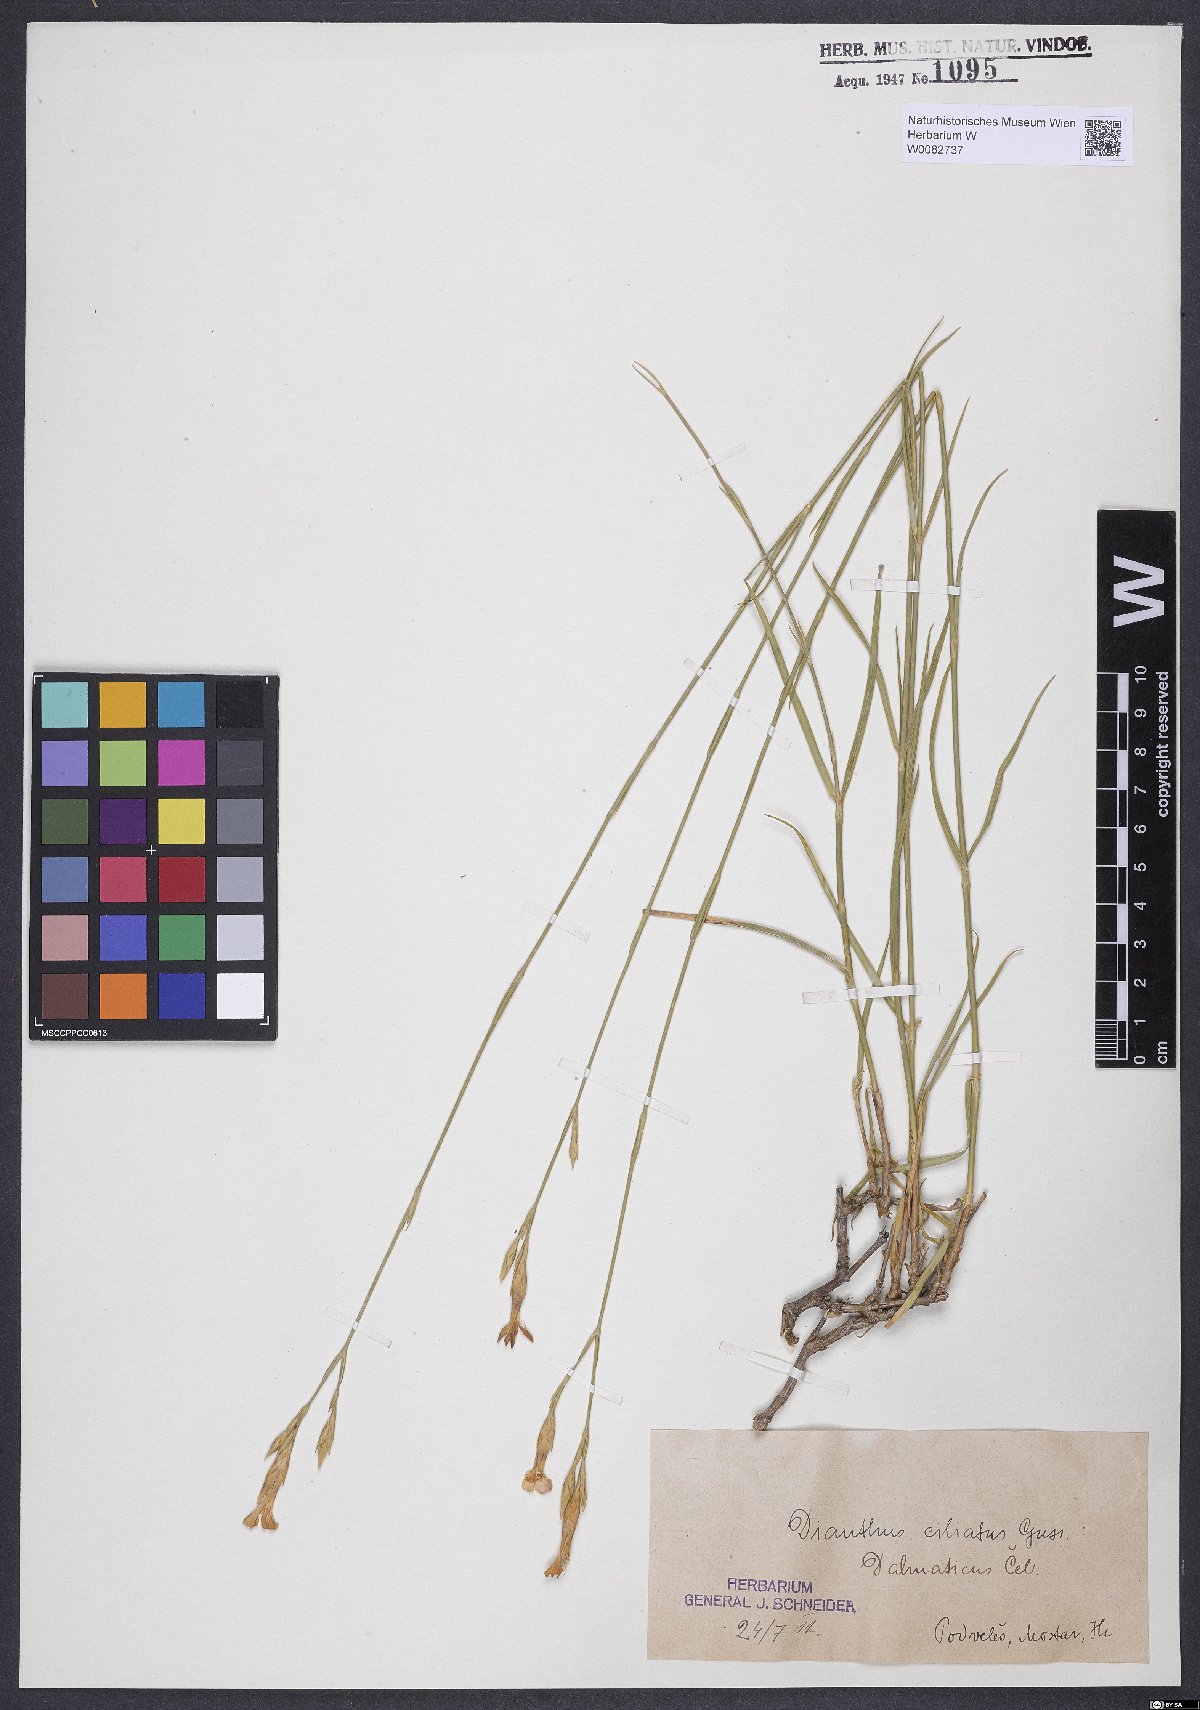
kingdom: Plantae
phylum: Tracheophyta
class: Magnoliopsida
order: Caryophyllales
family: Caryophyllaceae
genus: Dianthus
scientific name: Dianthus ciliatus
